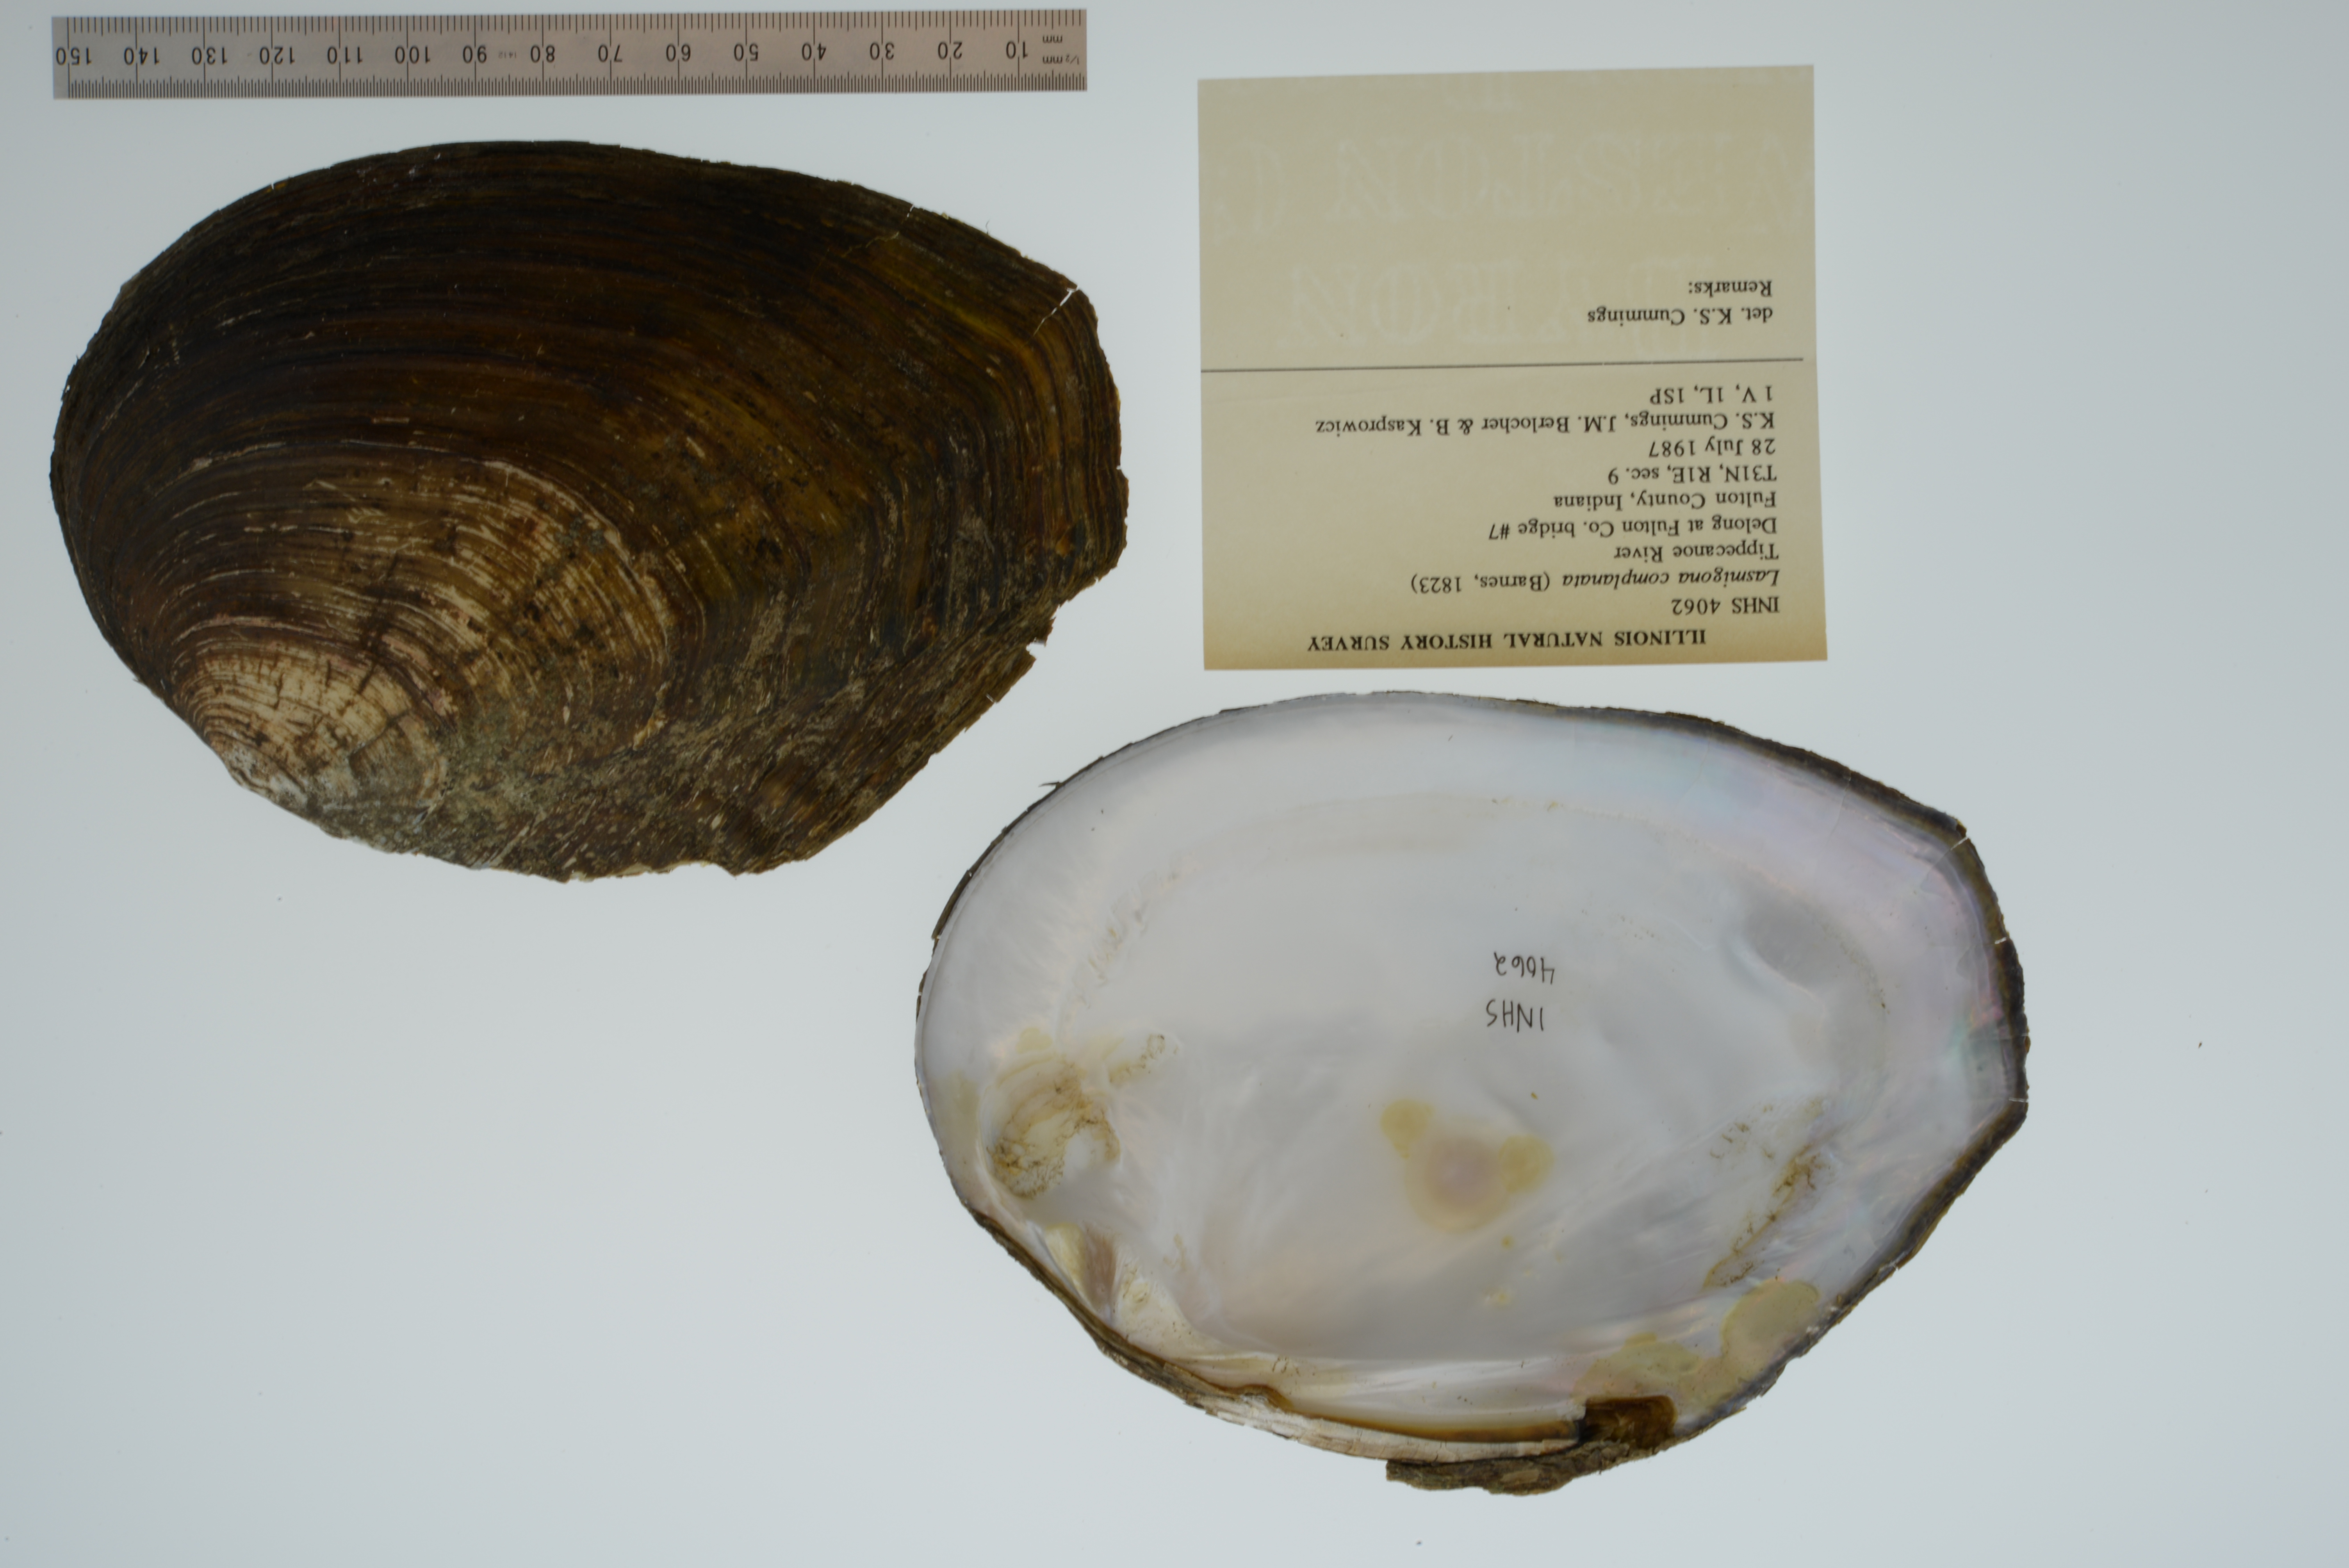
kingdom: Animalia
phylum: Mollusca
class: Bivalvia
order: Unionida
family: Unionidae
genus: Lasmigona
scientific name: Lasmigona complanata
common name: White heelsplitter
